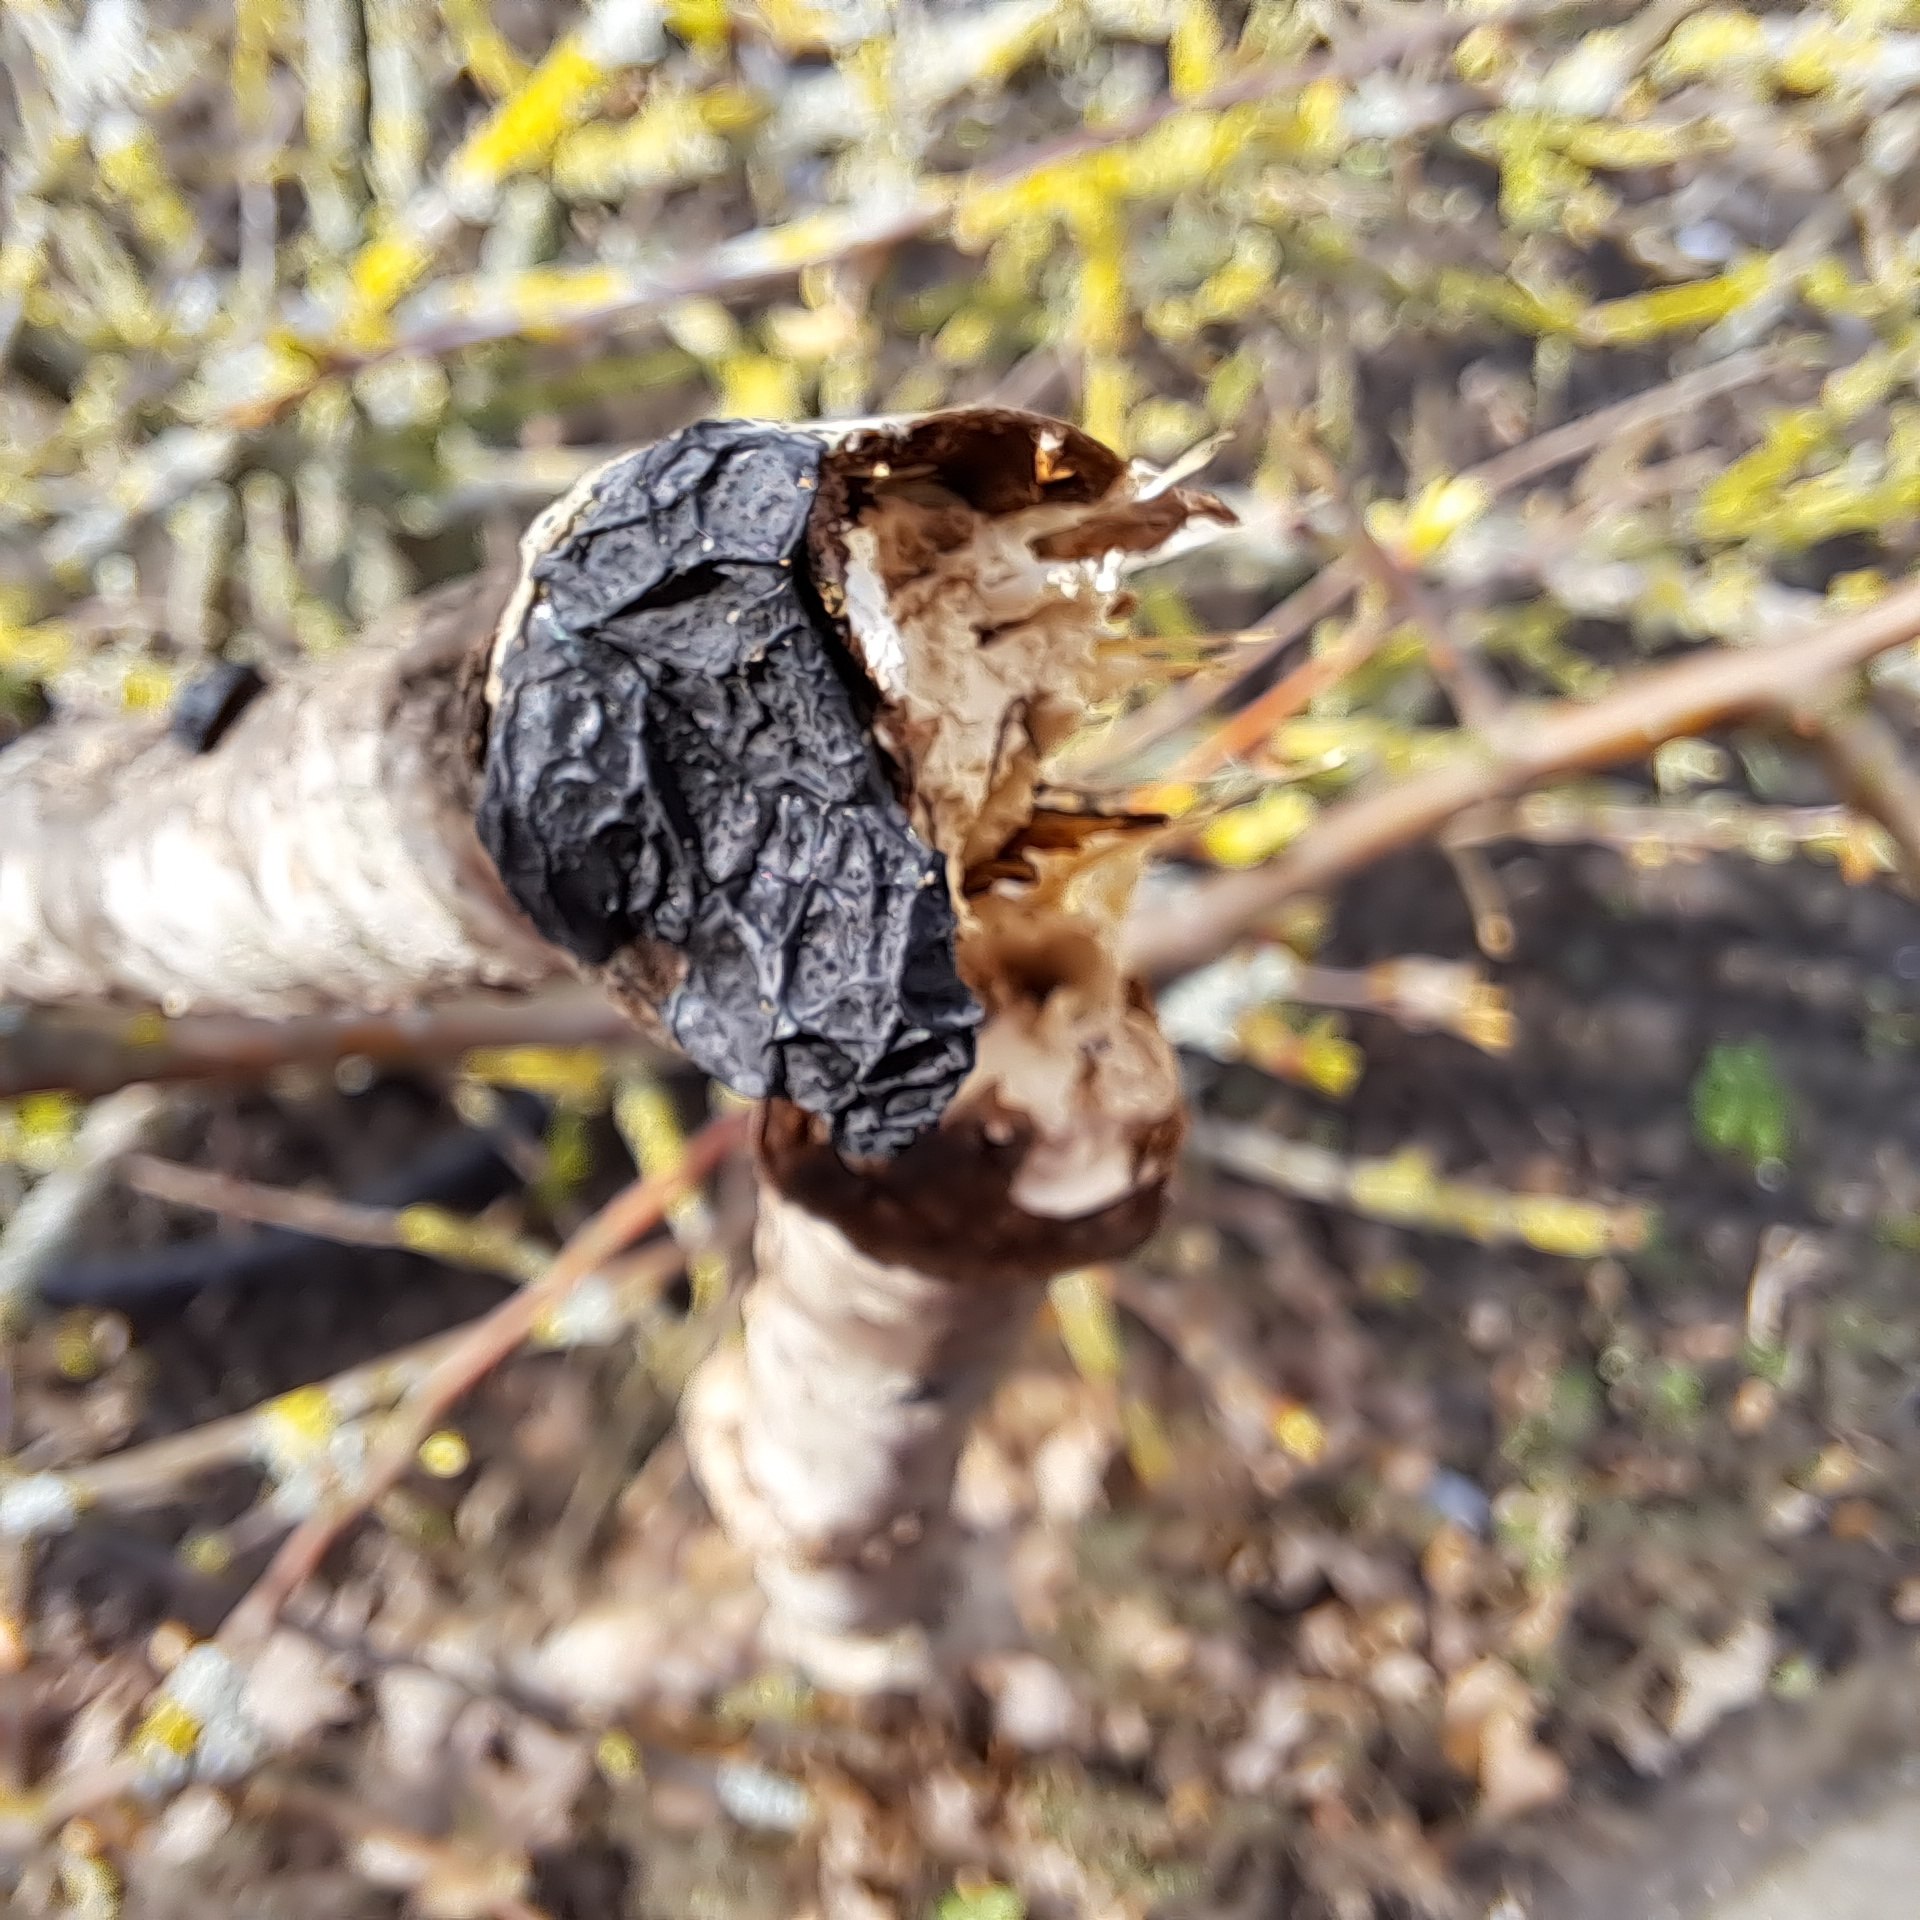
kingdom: Fungi
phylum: Basidiomycota
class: Agaricomycetes
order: Auriculariales
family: Auriculariaceae
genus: Exidia
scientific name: Exidia nigricans
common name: almindelig bævretop
